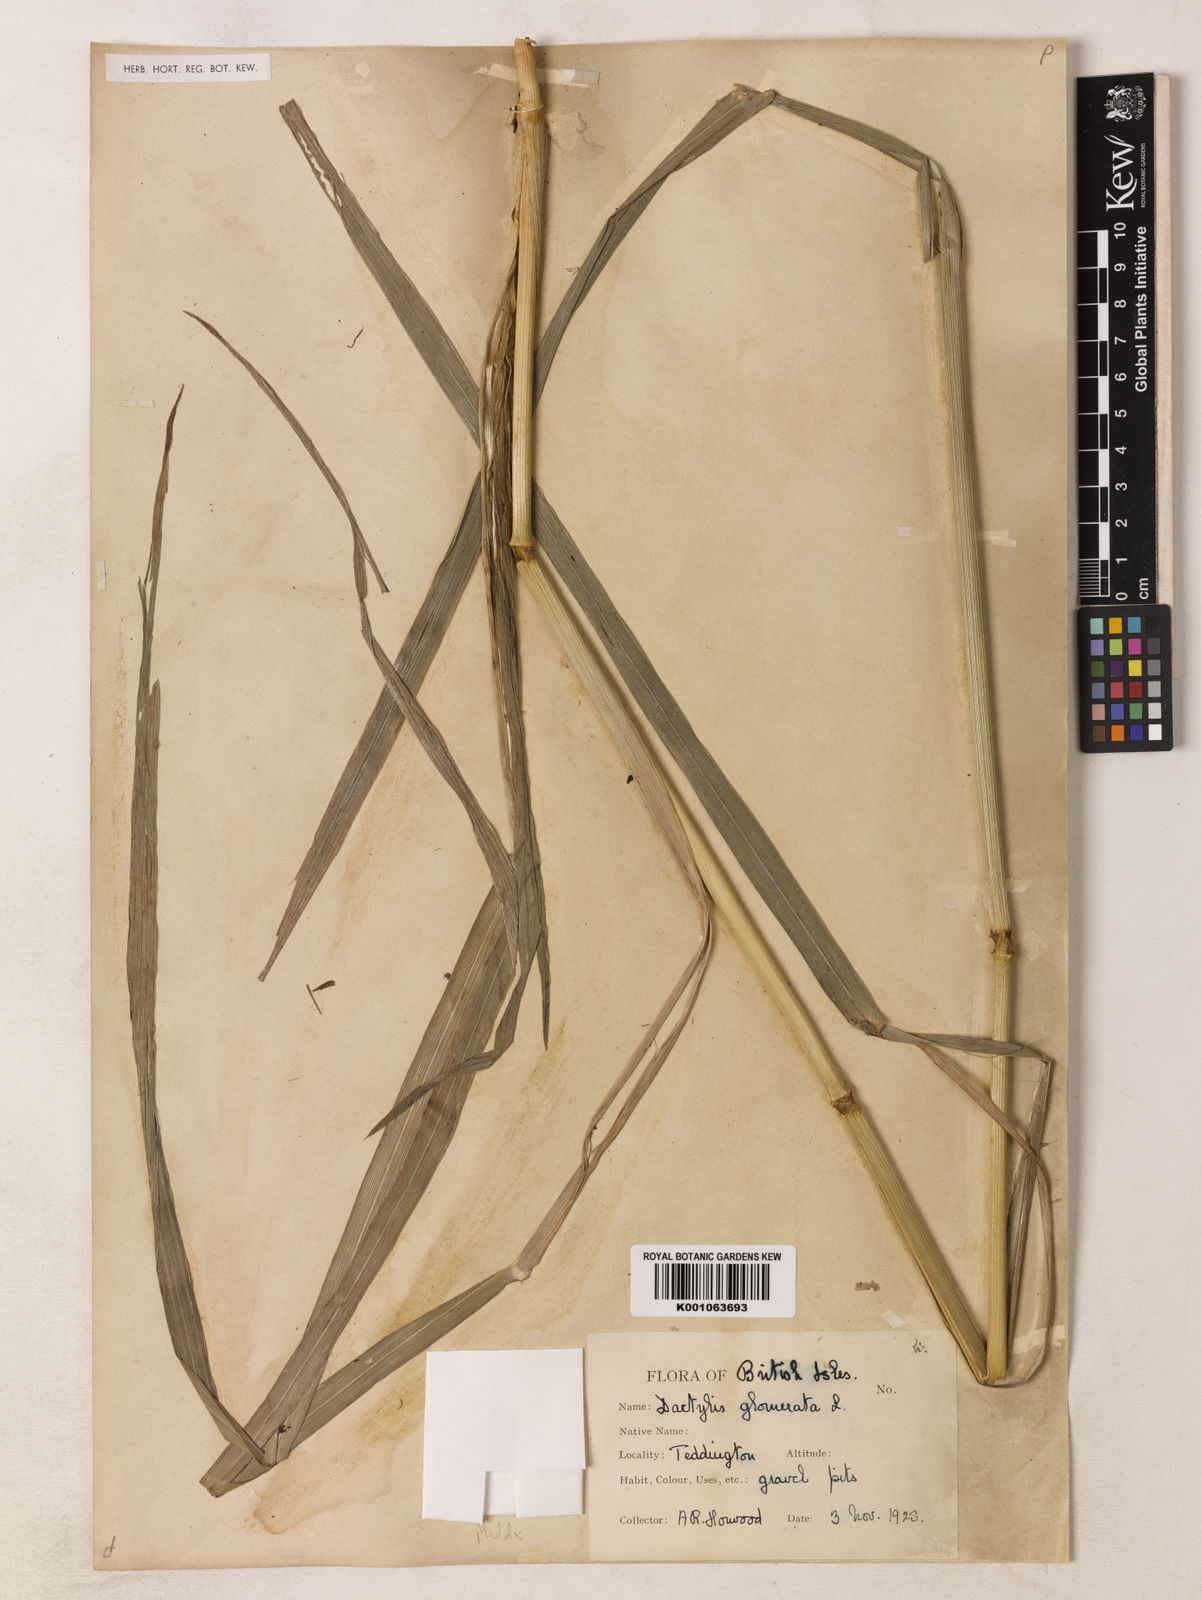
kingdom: Plantae
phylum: Tracheophyta
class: Liliopsida
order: Poales
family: Poaceae
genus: Dactylis
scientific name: Dactylis glomerata
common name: Orchardgrass
